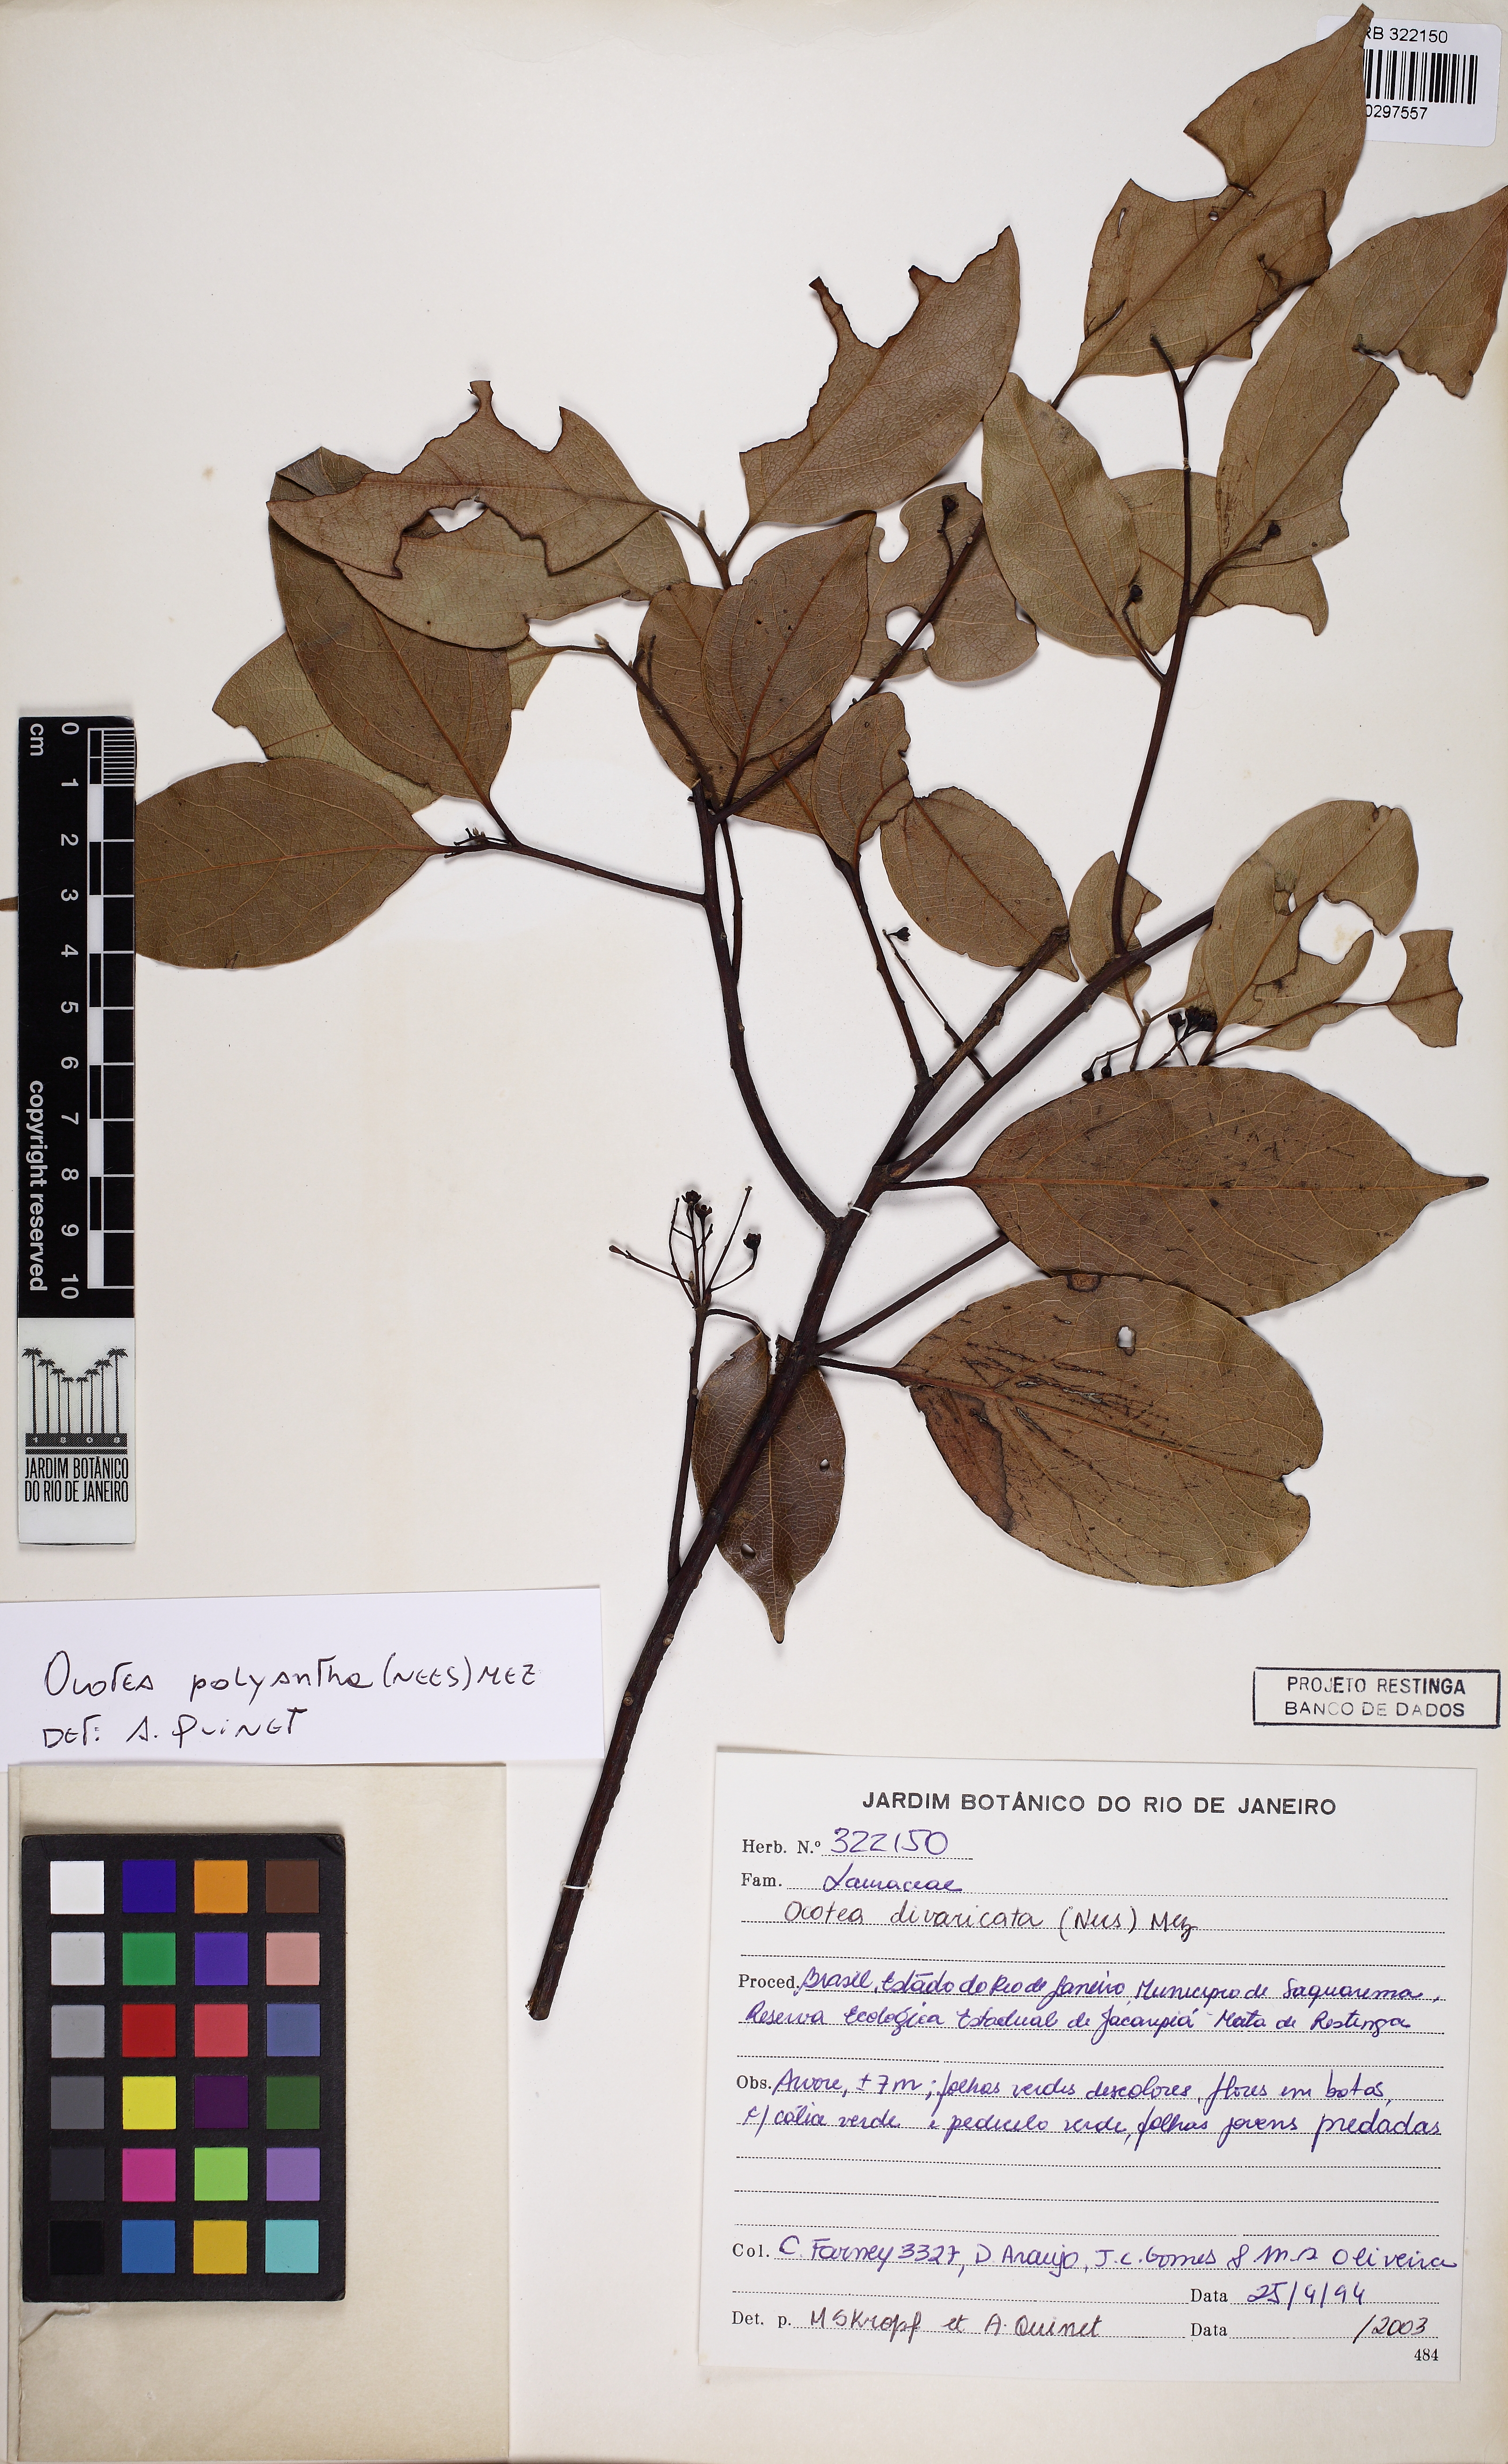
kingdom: Plantae
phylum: Tracheophyta
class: Magnoliopsida
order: Laurales
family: Lauraceae
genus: Ocotea
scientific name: Ocotea polyantha
